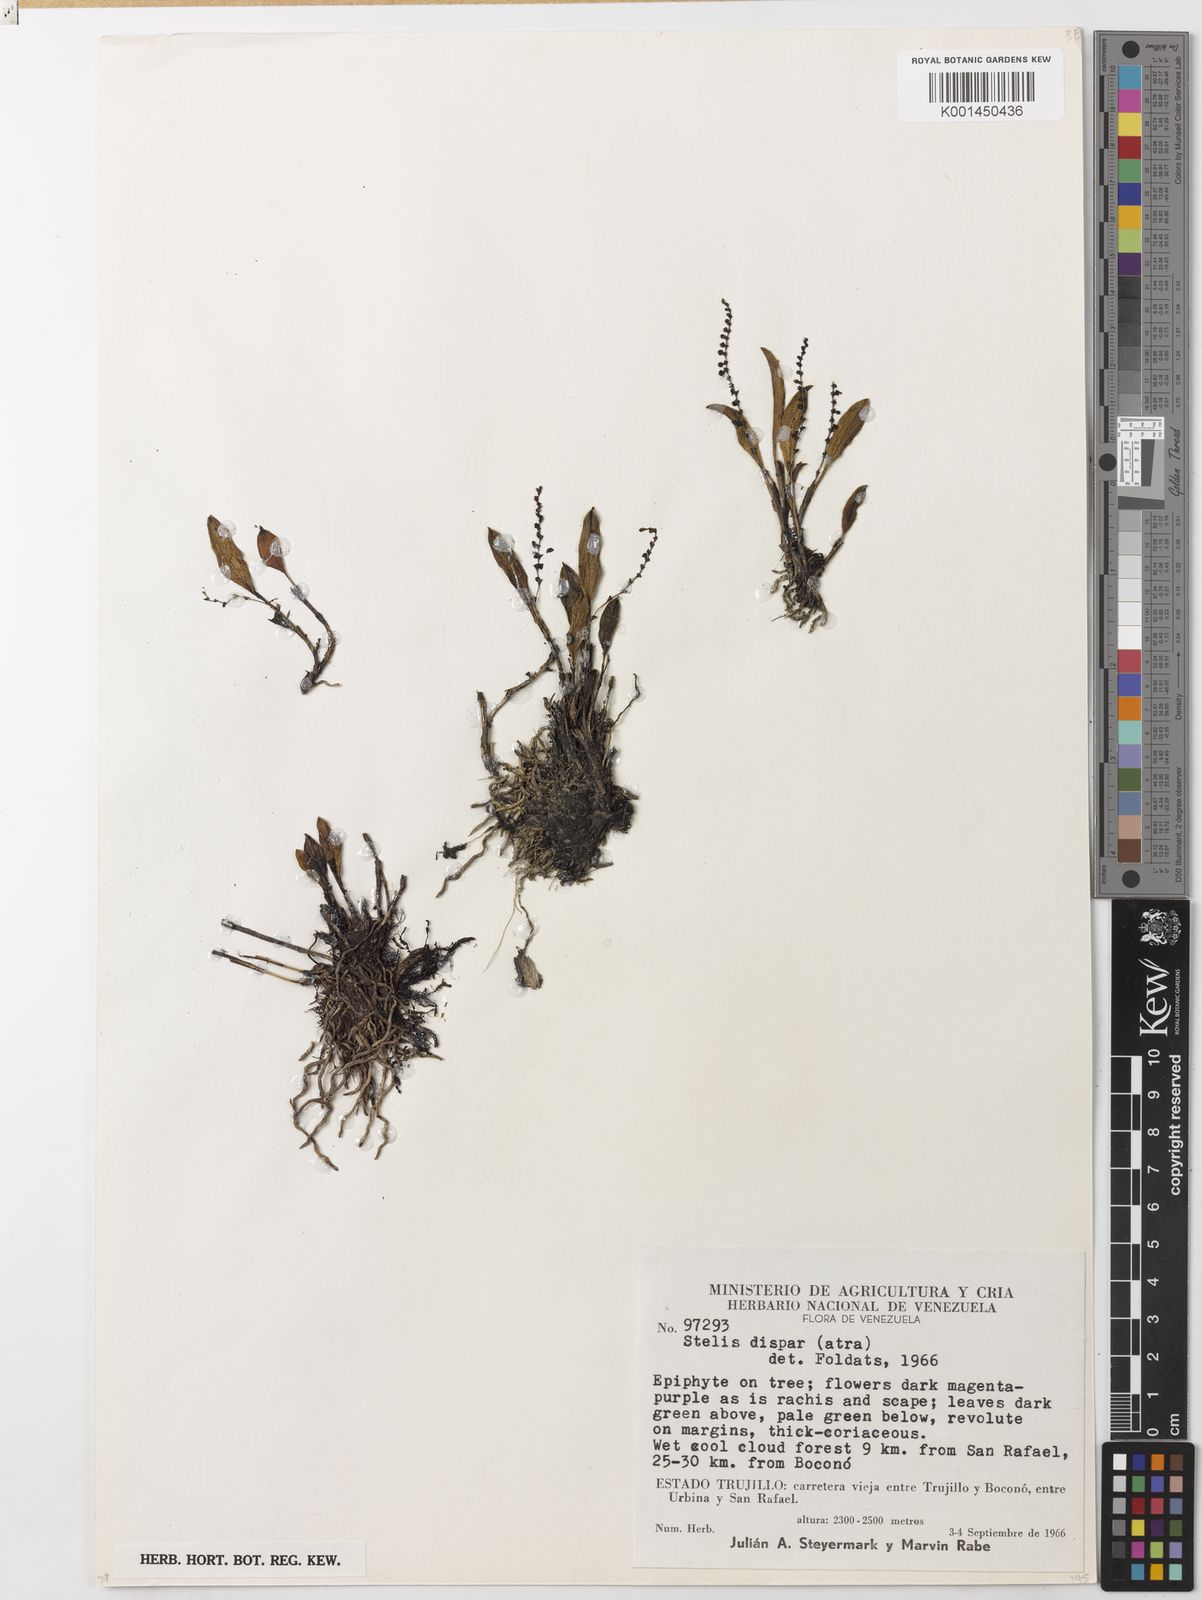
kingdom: Plantae
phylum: Tracheophyta
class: Liliopsida
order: Asparagales
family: Orchidaceae
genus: Stelis
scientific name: Stelis atra
